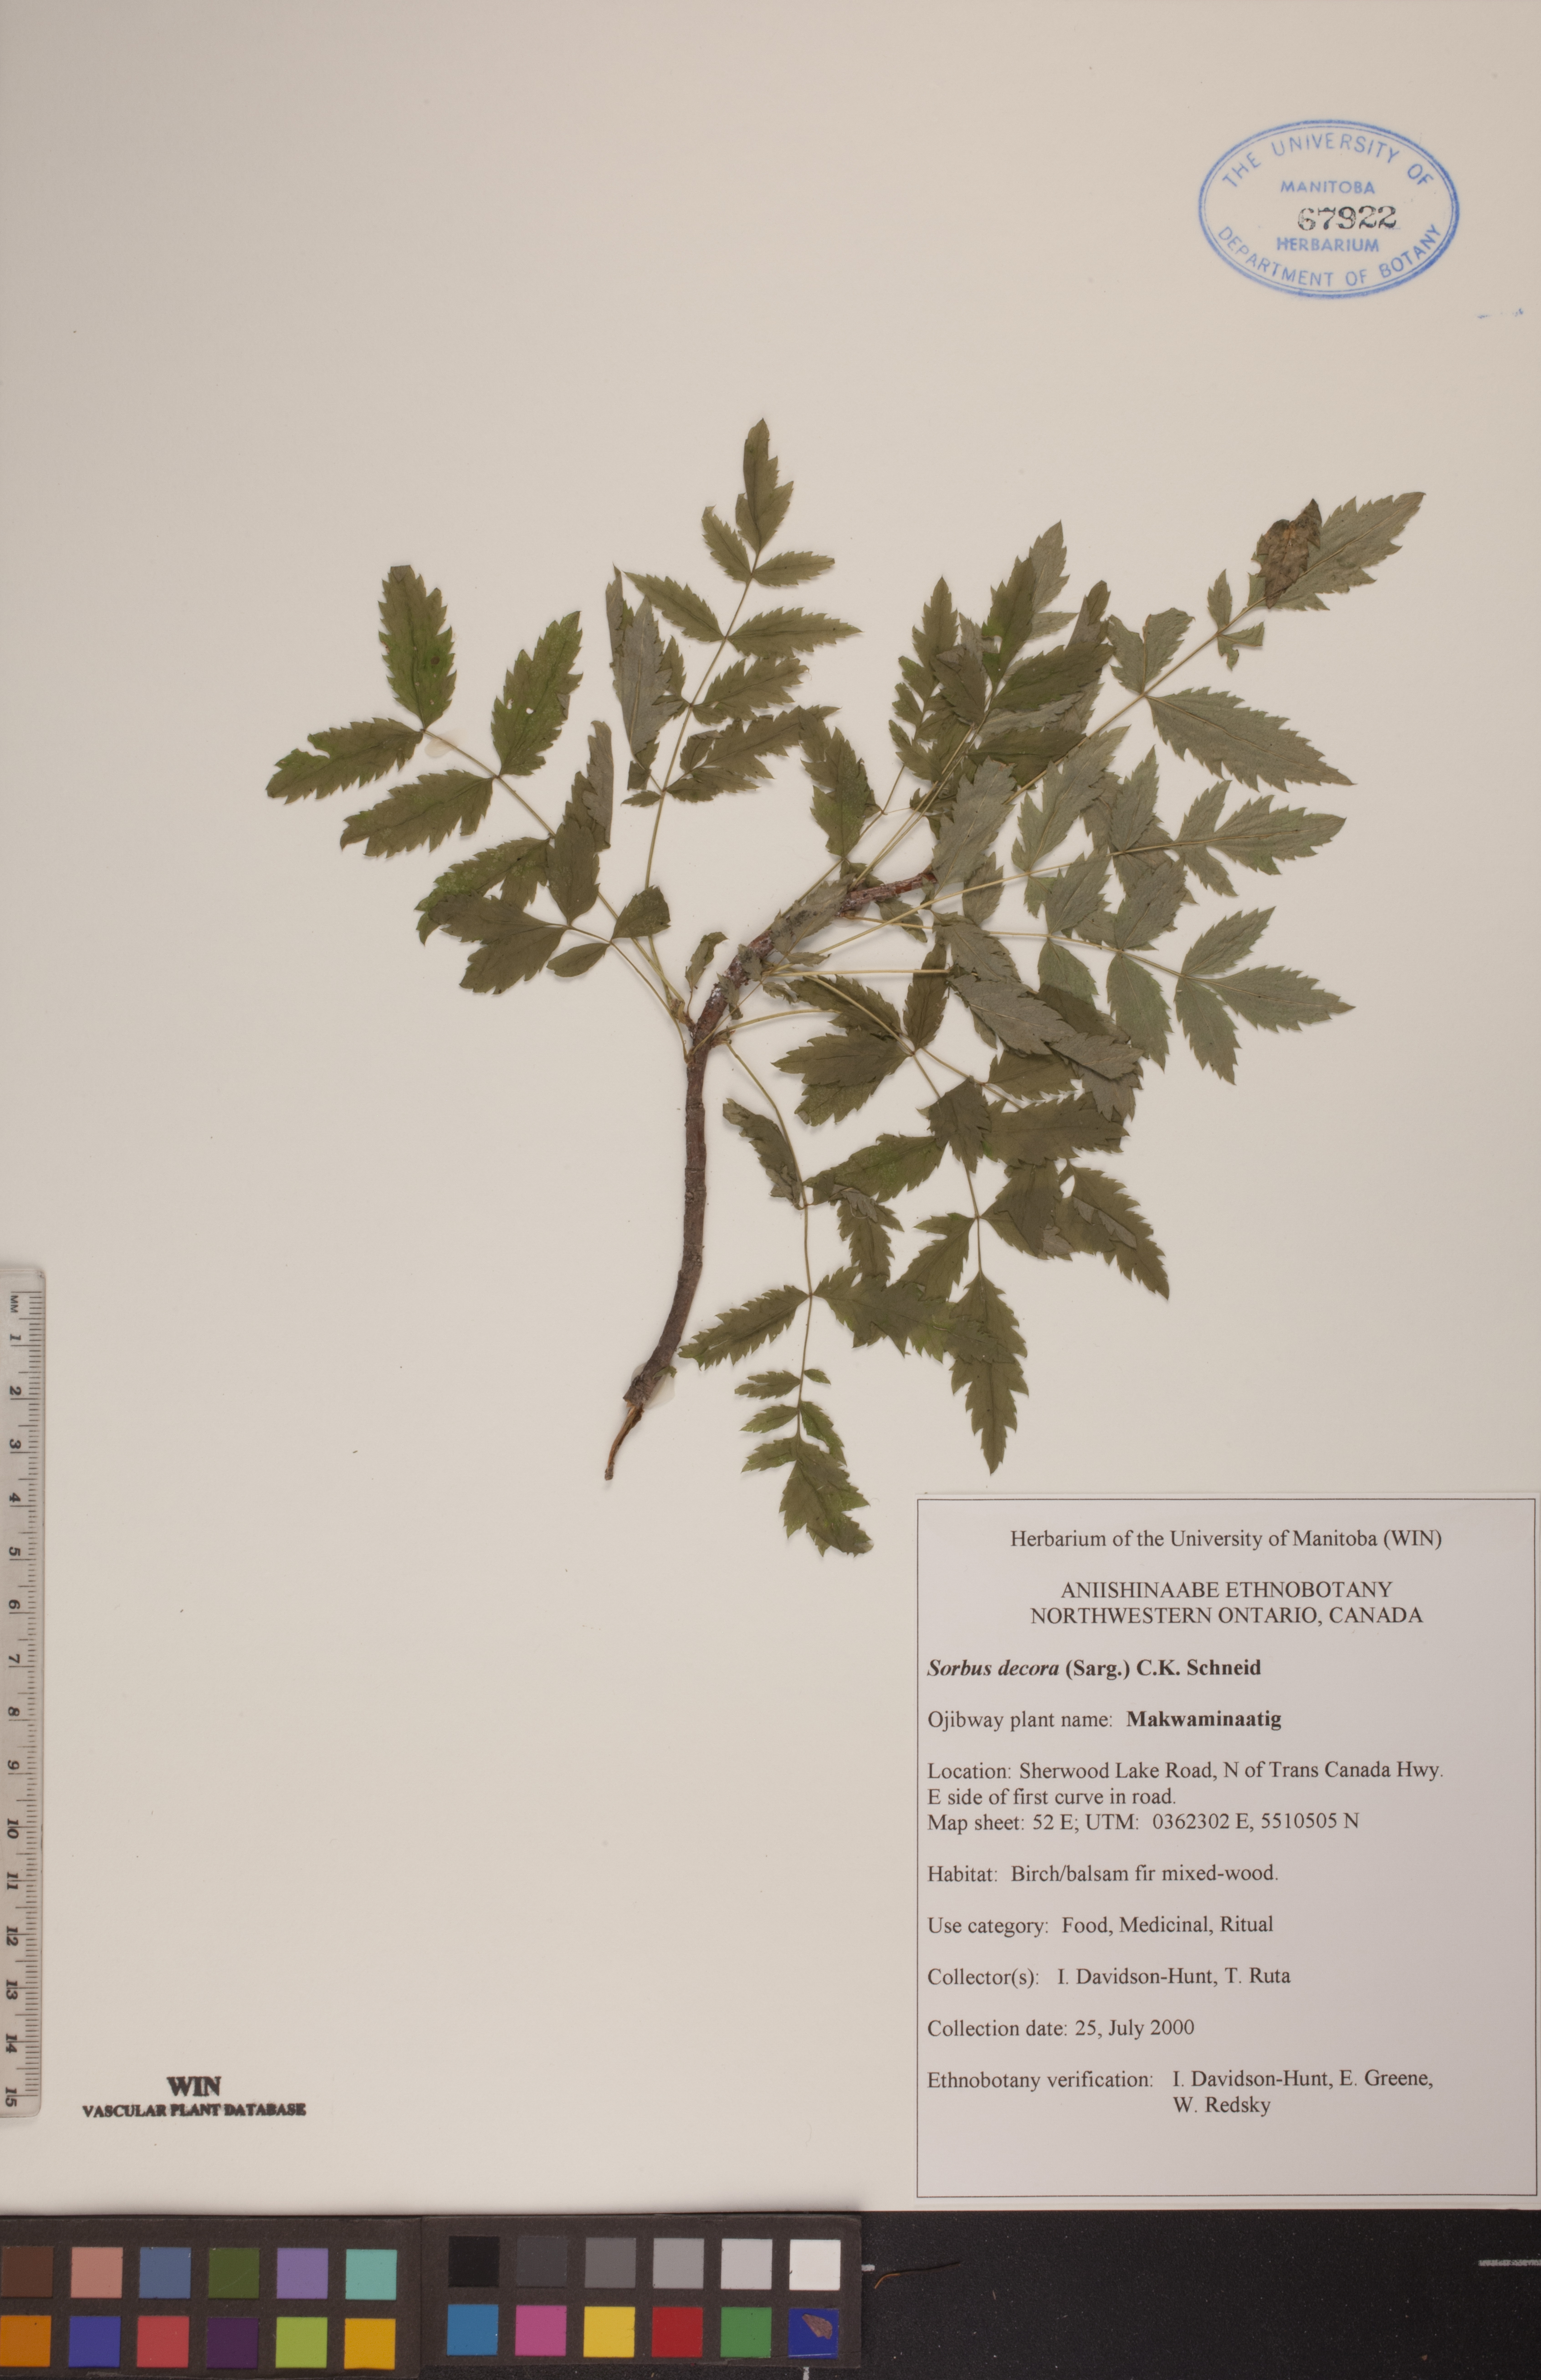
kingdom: Plantae
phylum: Tracheophyta
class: Magnoliopsida
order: Rosales
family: Rosaceae
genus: Sorbus
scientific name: Sorbus decora
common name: Northern mountain-ash
